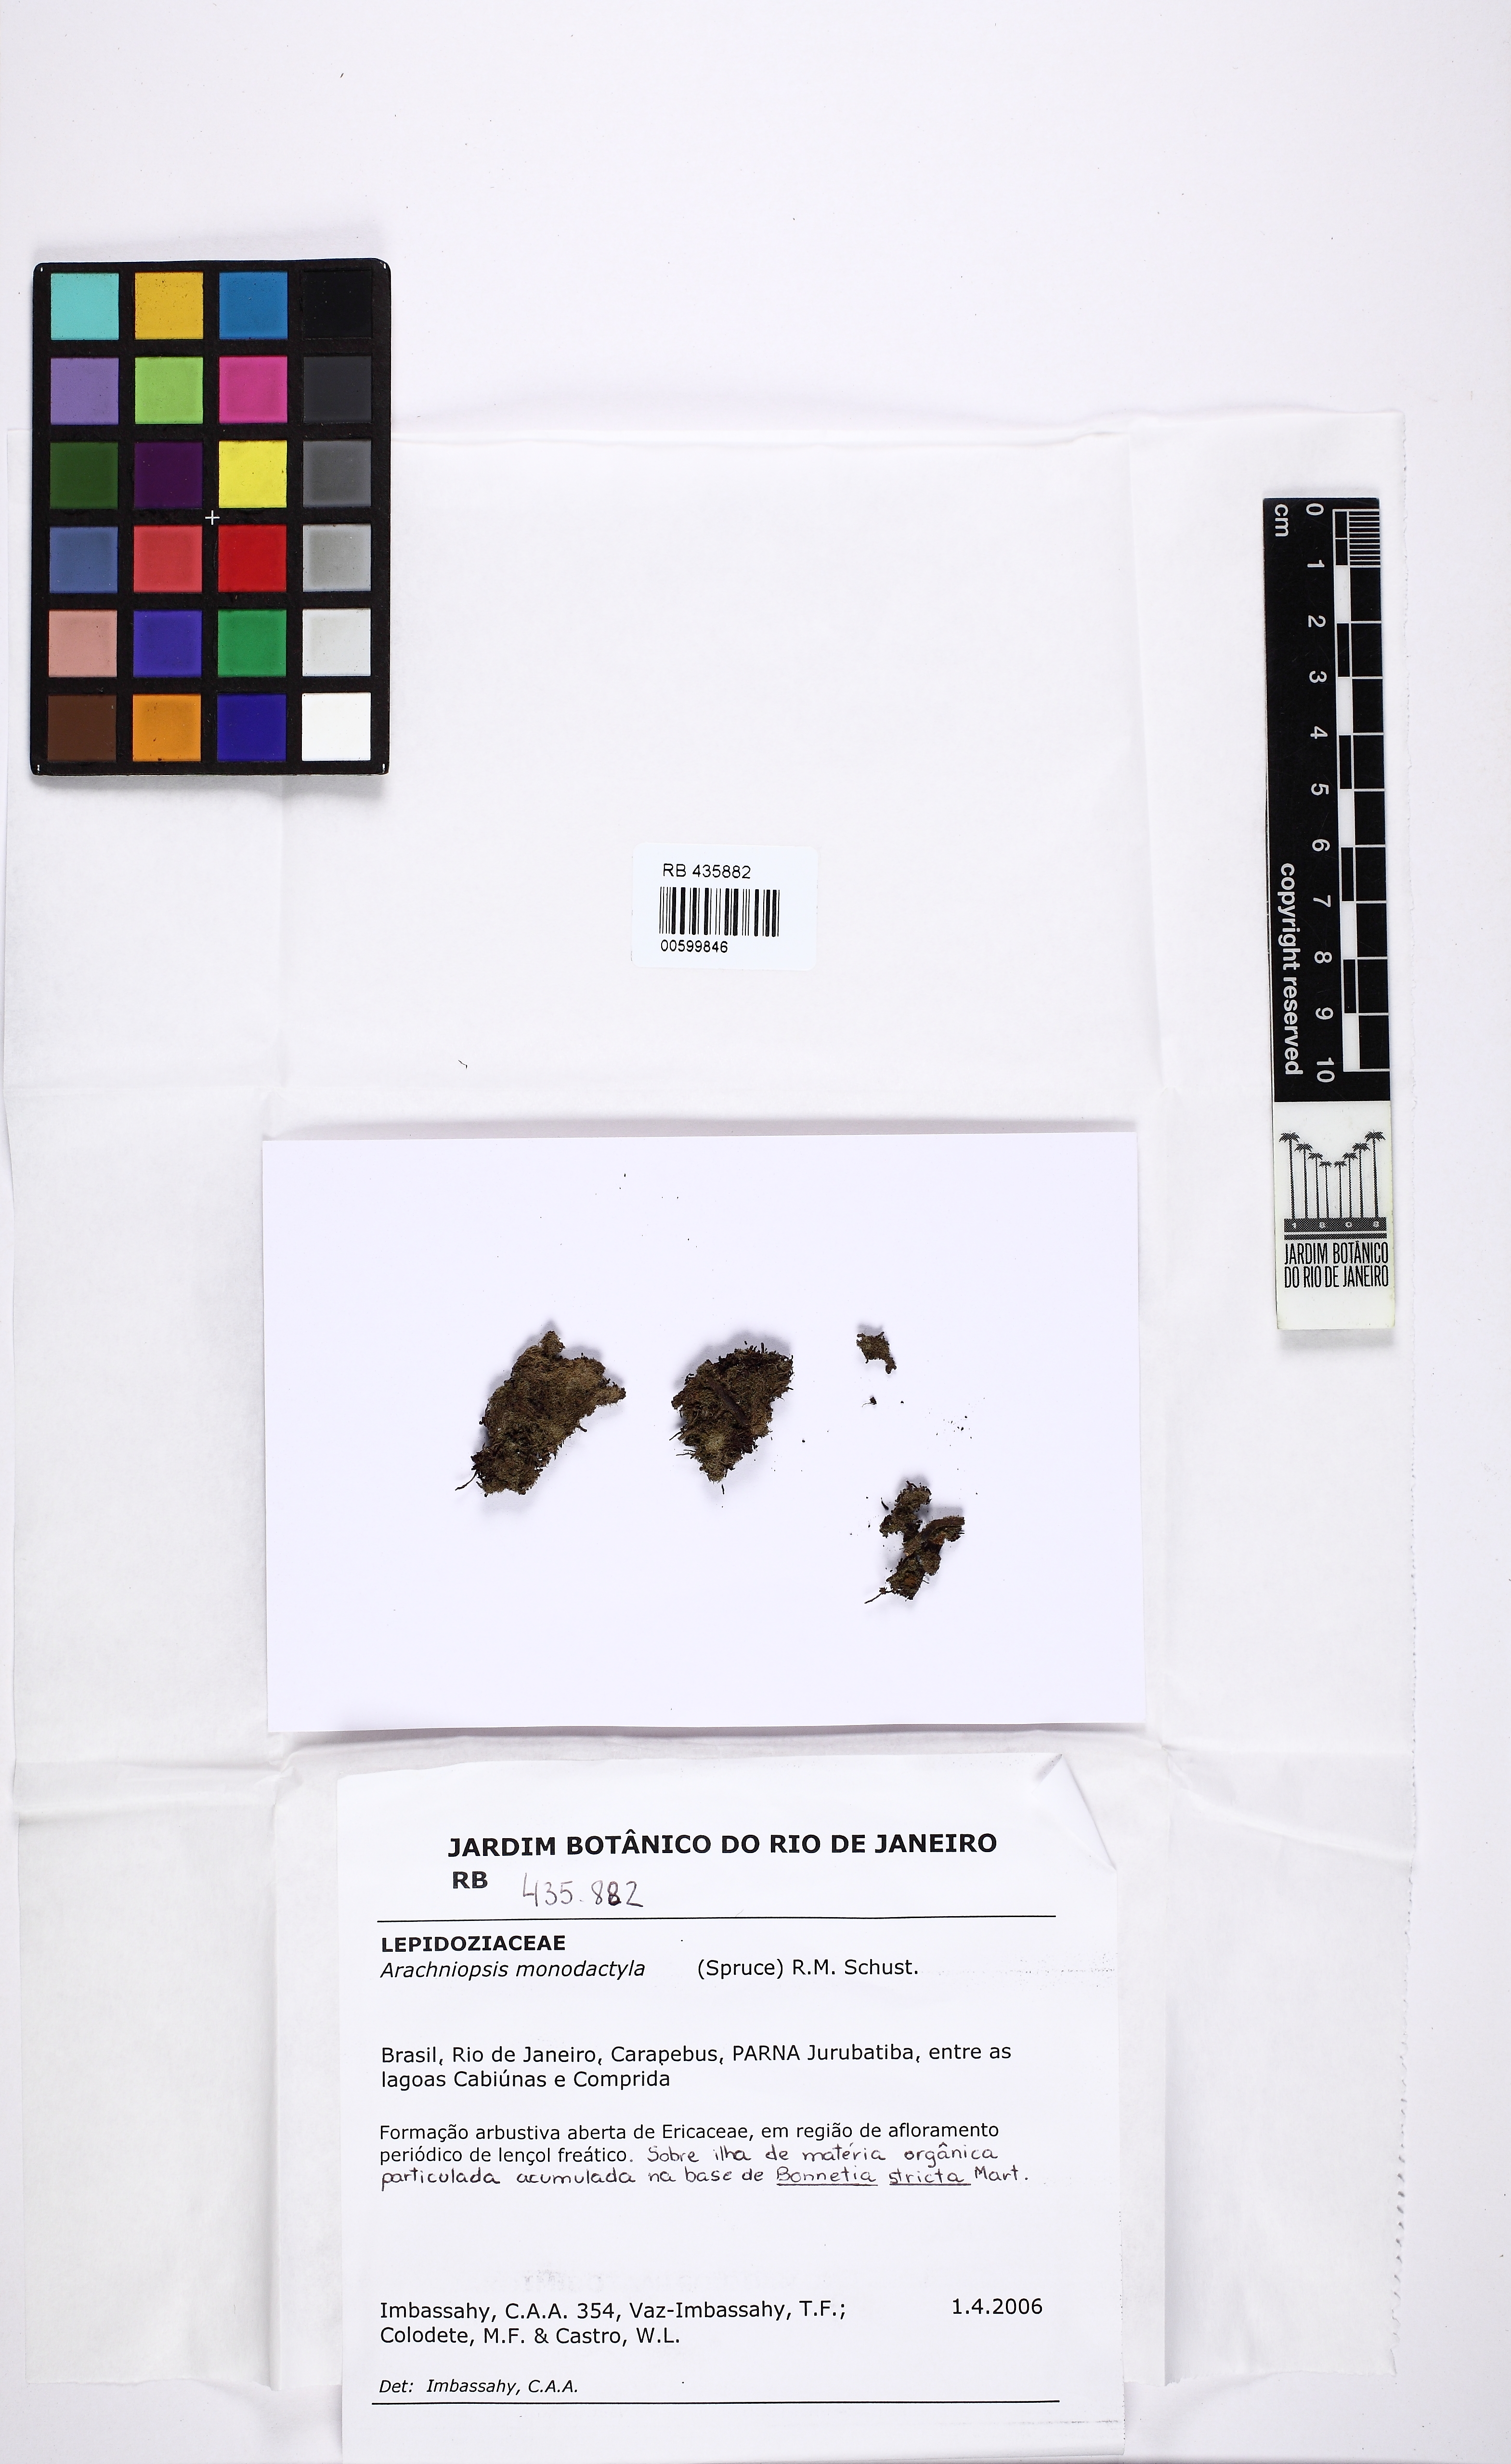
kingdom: Plantae
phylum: Marchantiophyta
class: Jungermanniopsida
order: Jungermanniales
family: Lepidoziaceae
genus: Monodactylopsis
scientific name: Monodactylopsis monodactyla
